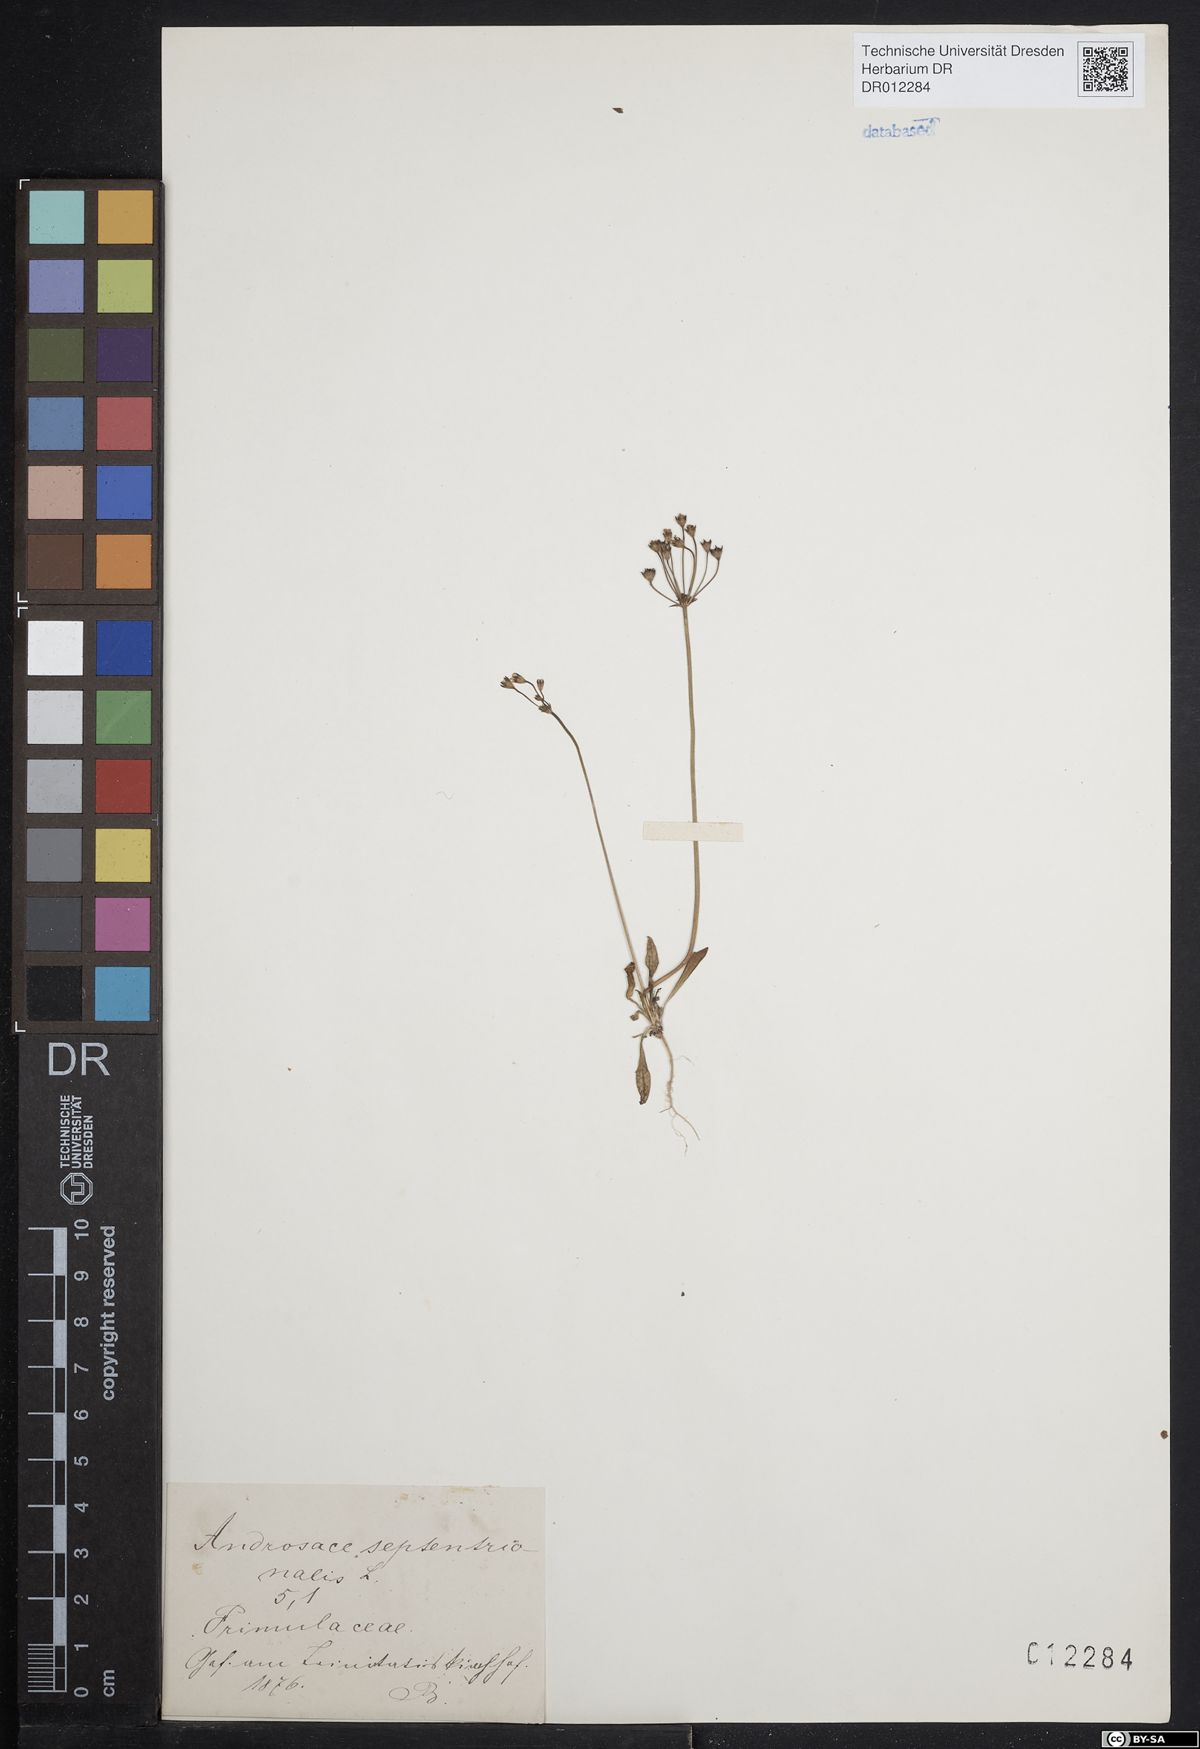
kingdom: Plantae
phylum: Tracheophyta
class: Magnoliopsida
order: Ericales
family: Primulaceae
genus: Androsace
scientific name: Androsace septentrionalis
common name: Hairy northern fairy-candelabra
